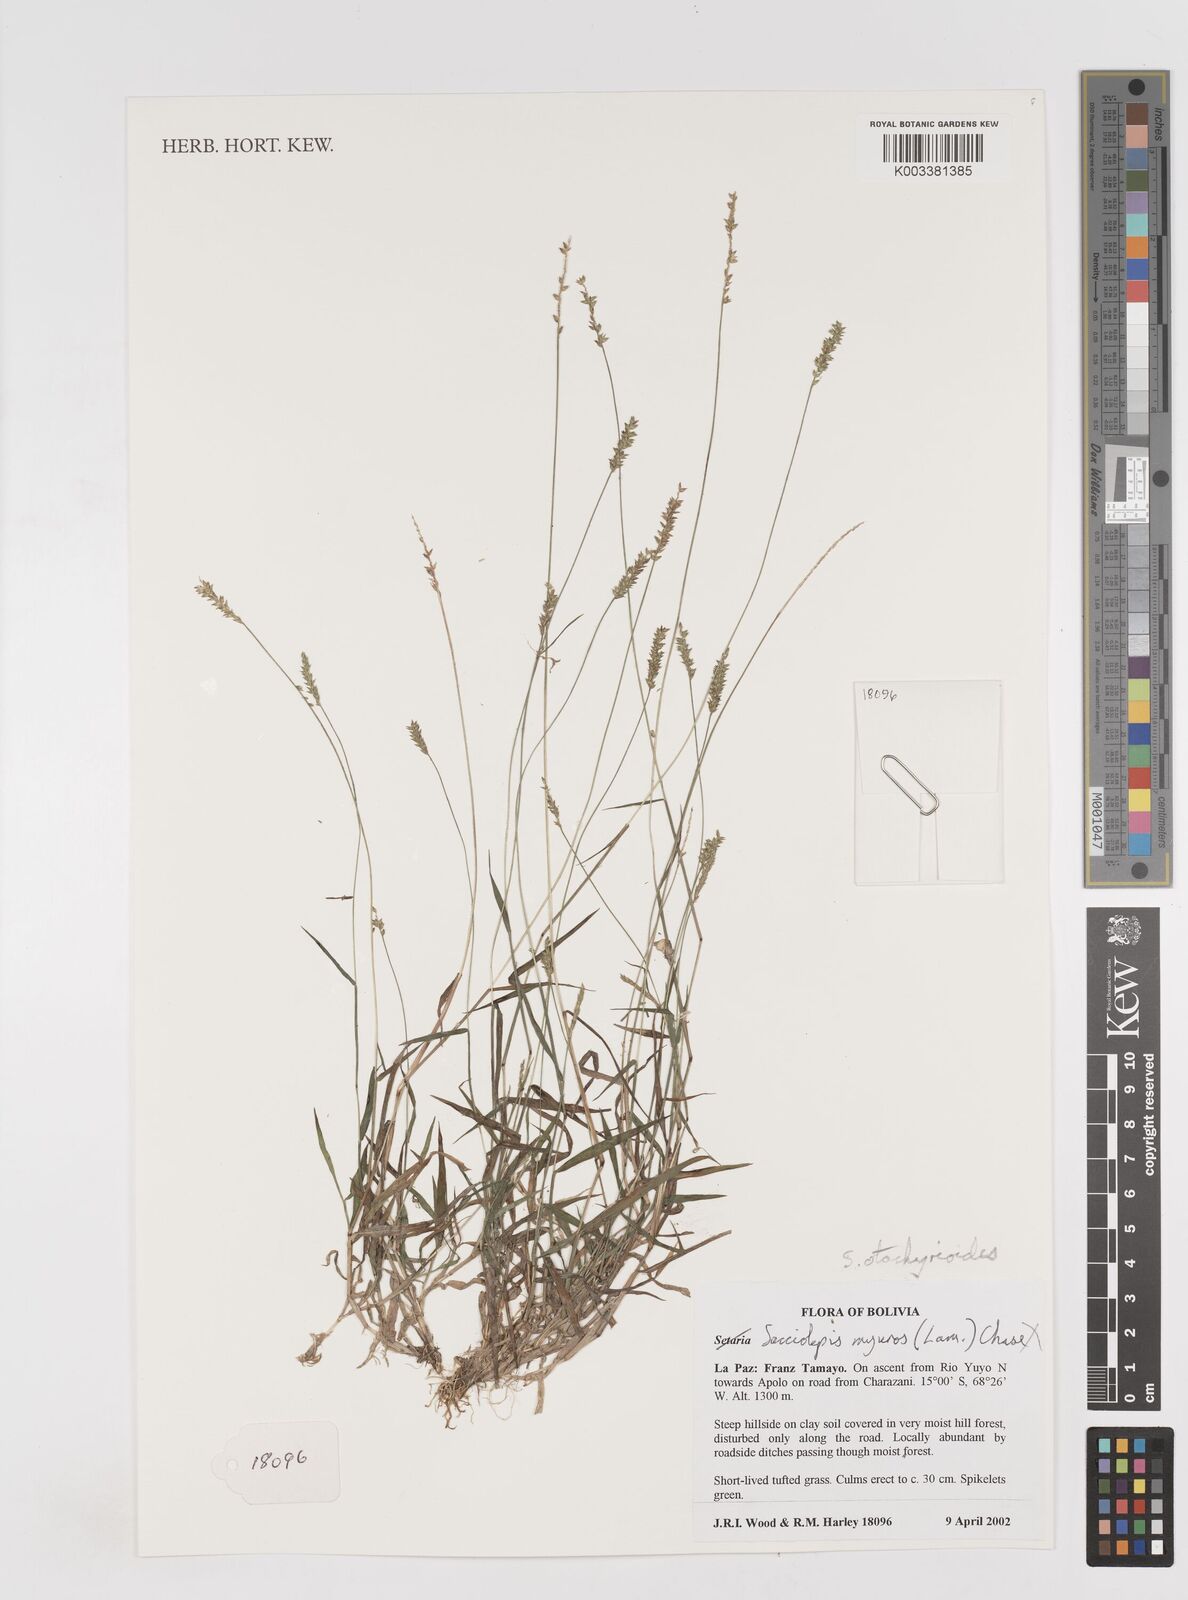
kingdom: Plantae
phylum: Tracheophyta
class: Liliopsida
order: Poales
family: Poaceae
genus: Sacciolepis
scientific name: Sacciolepis otachyrioides
